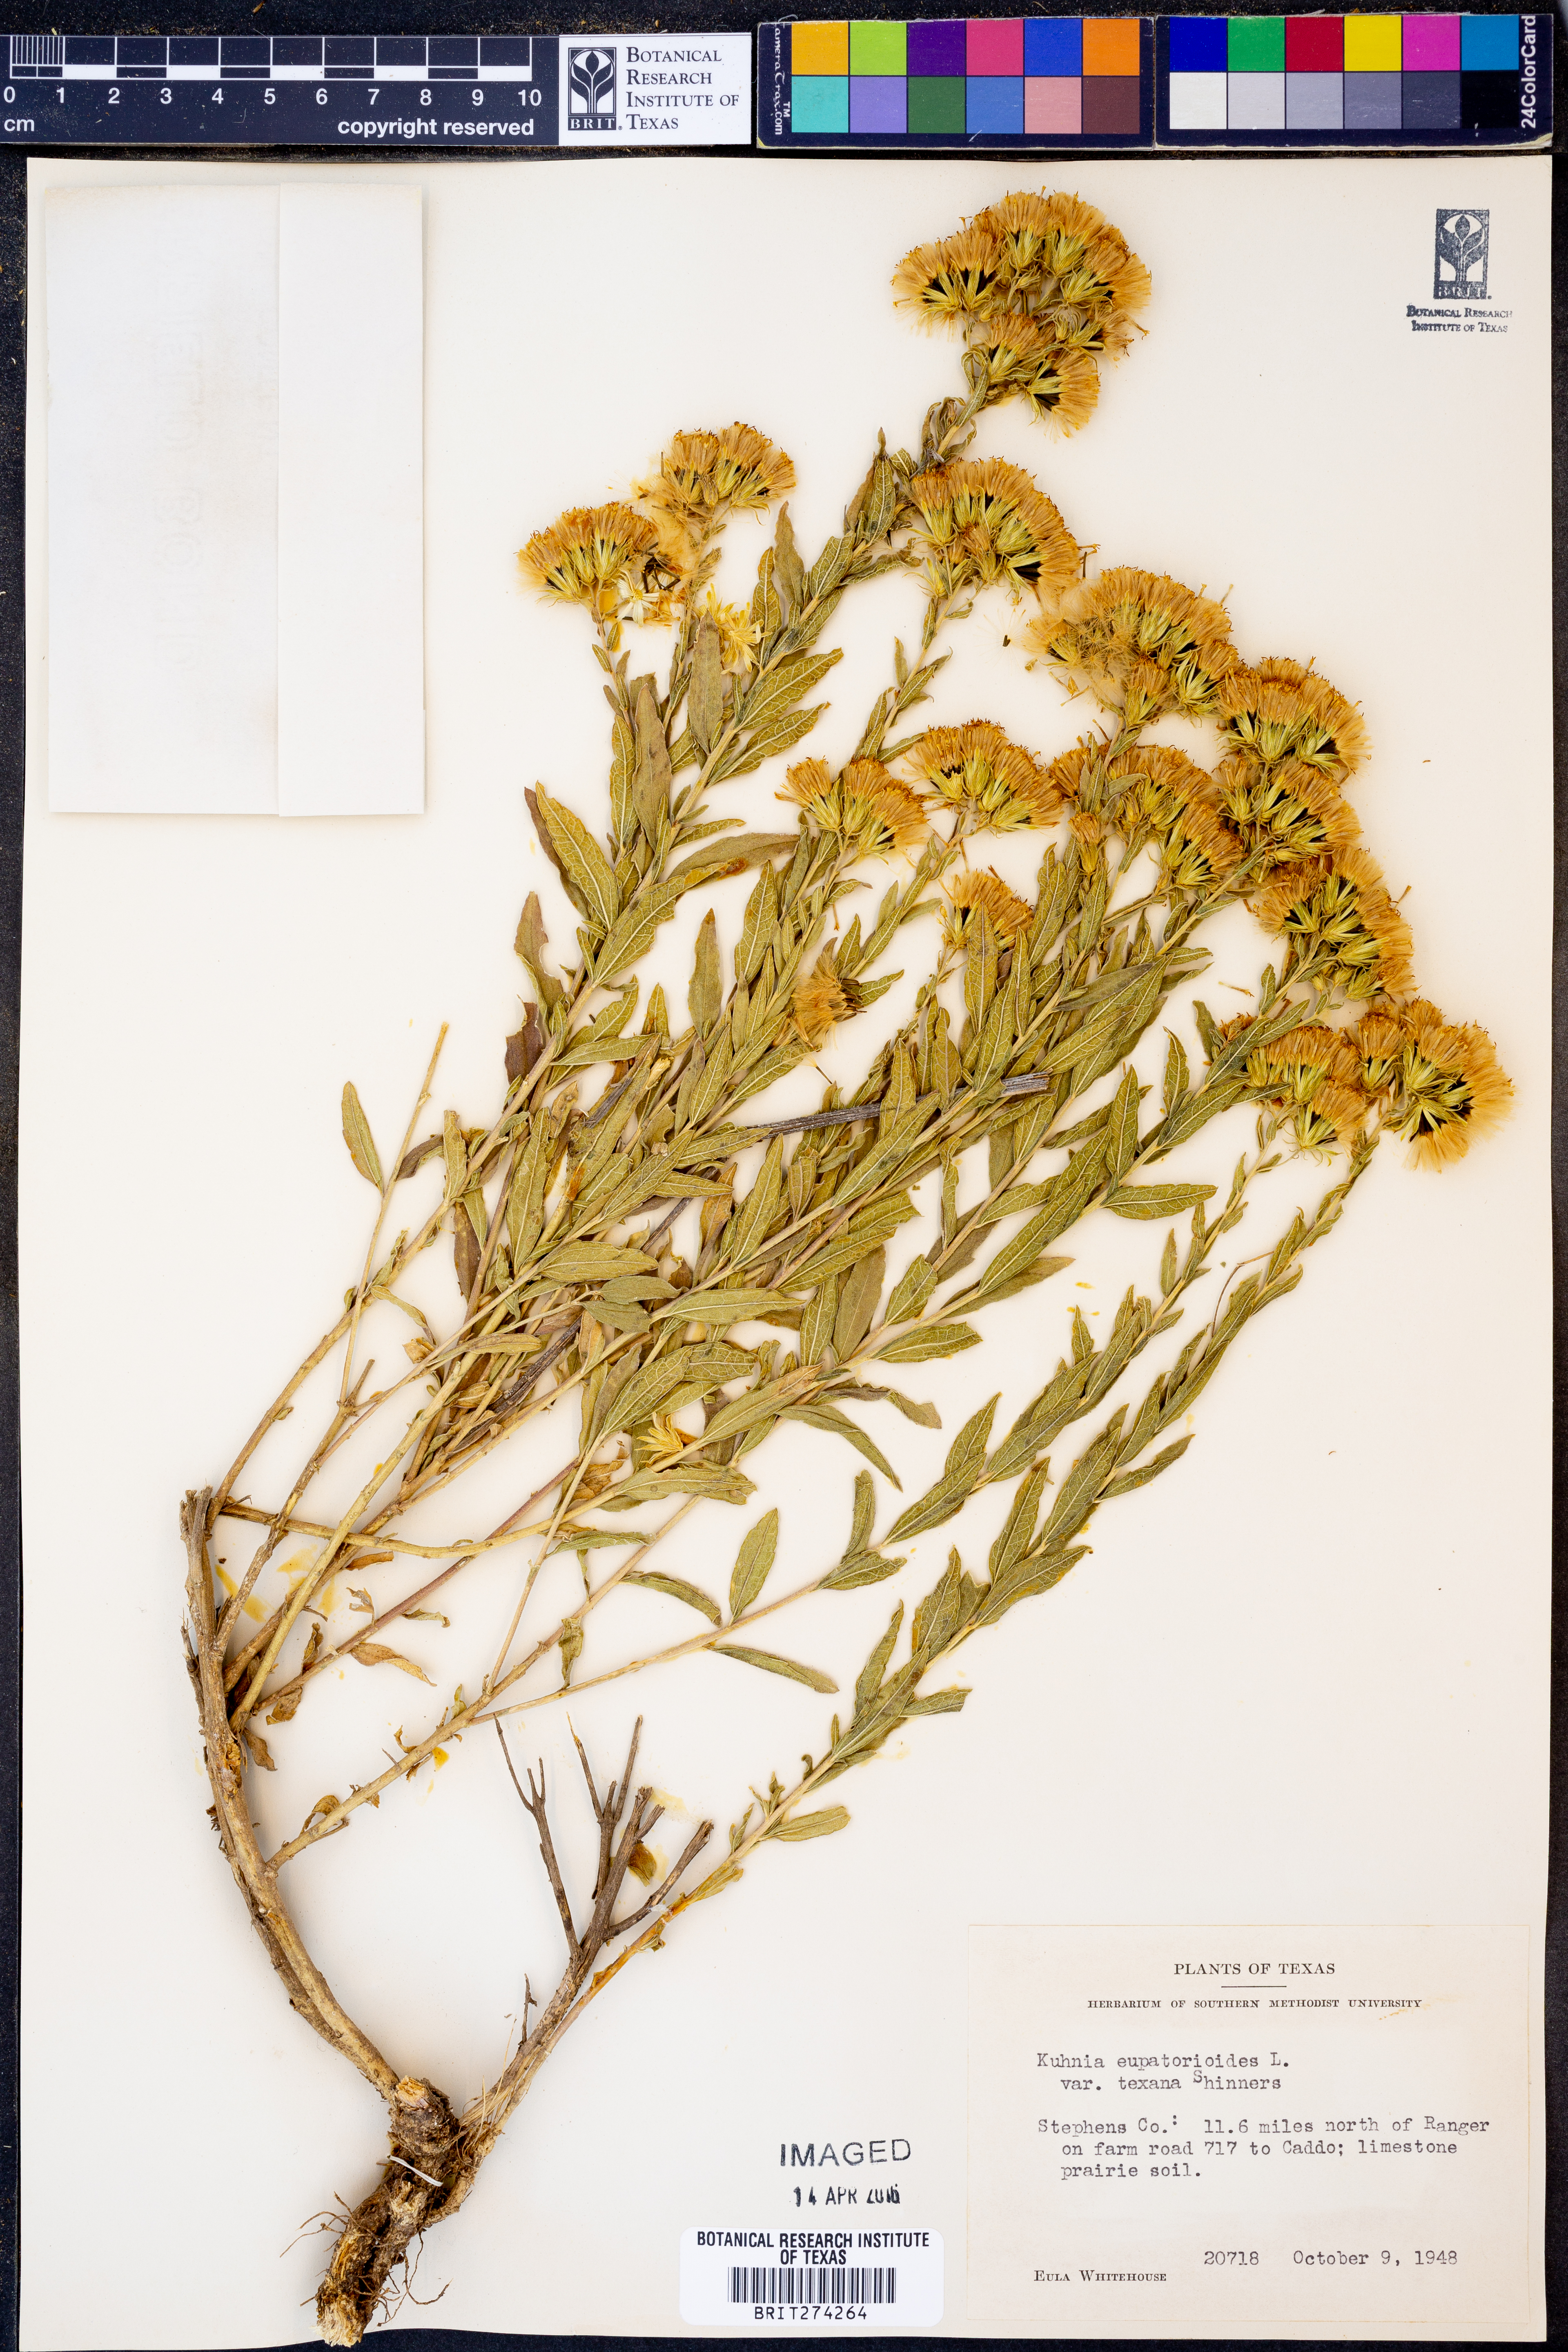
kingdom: Plantae
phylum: Tracheophyta
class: Magnoliopsida
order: Asterales
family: Asteraceae
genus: Brickellia
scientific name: Brickellia
